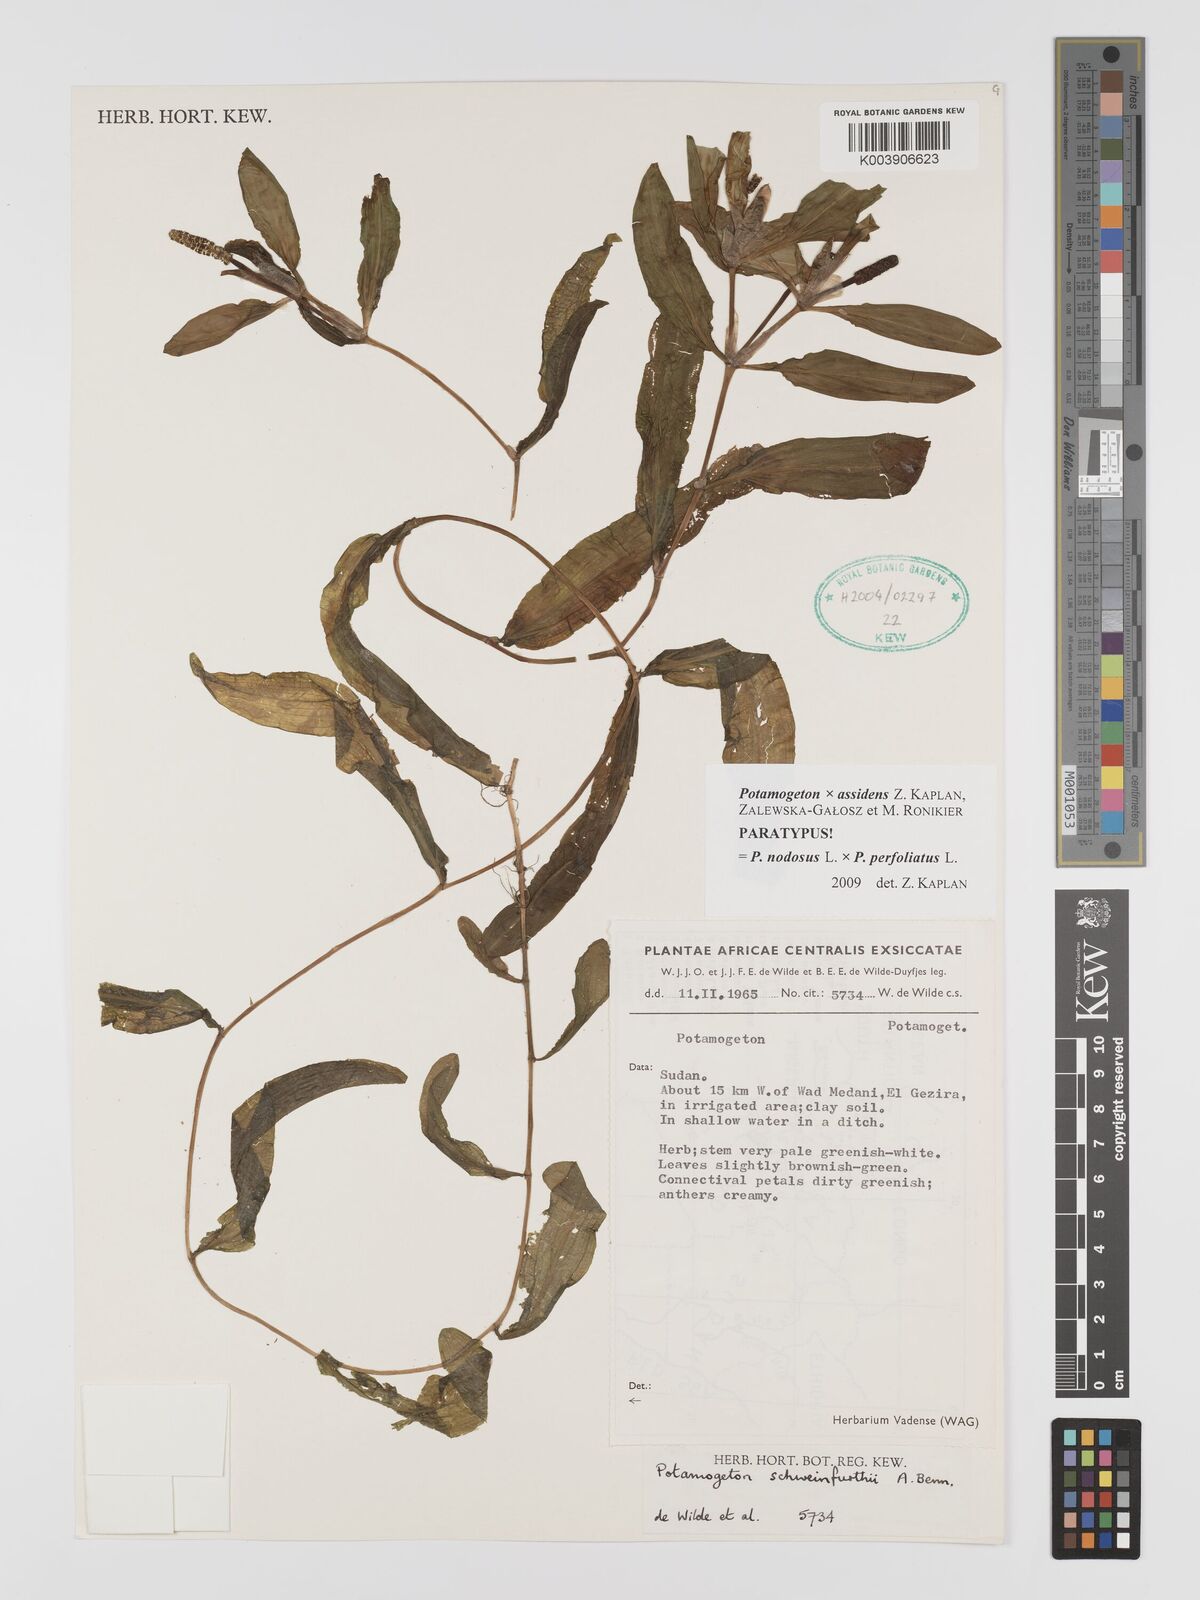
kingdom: Plantae
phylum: Tracheophyta
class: Liliopsida
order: Alismatales
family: Potamogetonaceae
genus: Potamogeton
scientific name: Potamogeton nervigerus
